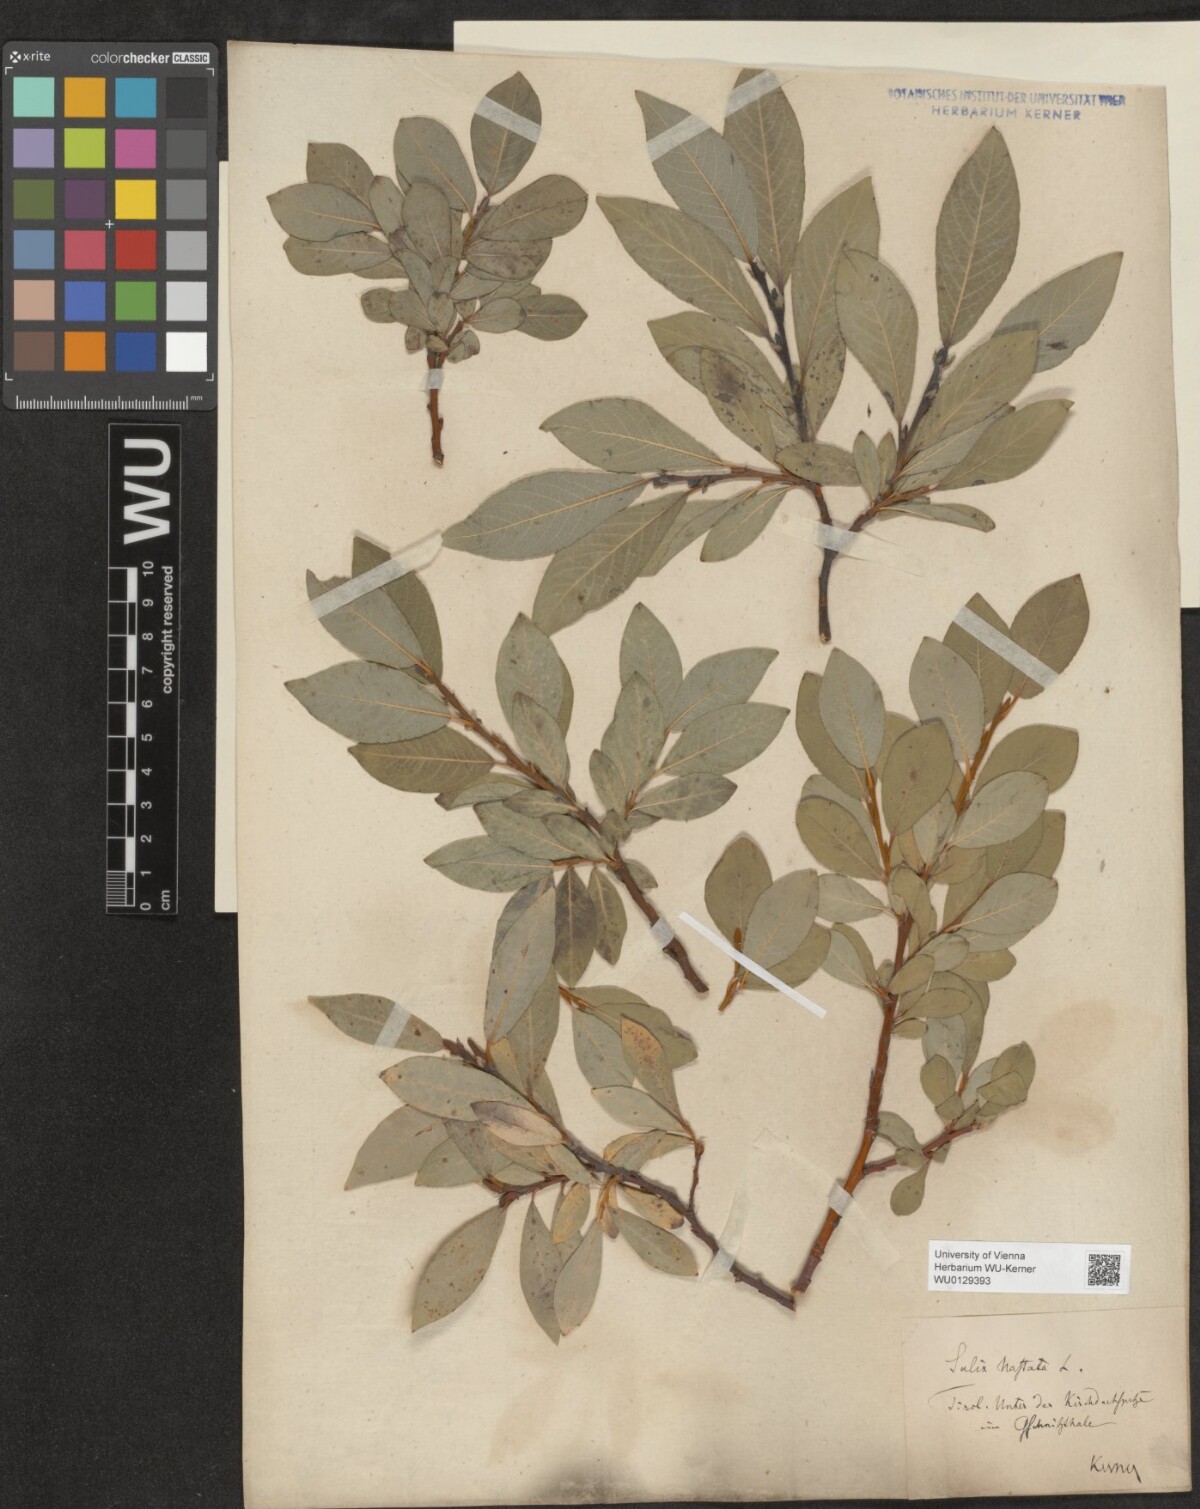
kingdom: Plantae
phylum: Tracheophyta
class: Magnoliopsida
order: Malpighiales
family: Salicaceae
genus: Salix
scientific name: Salix hastata
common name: Halberd willow
